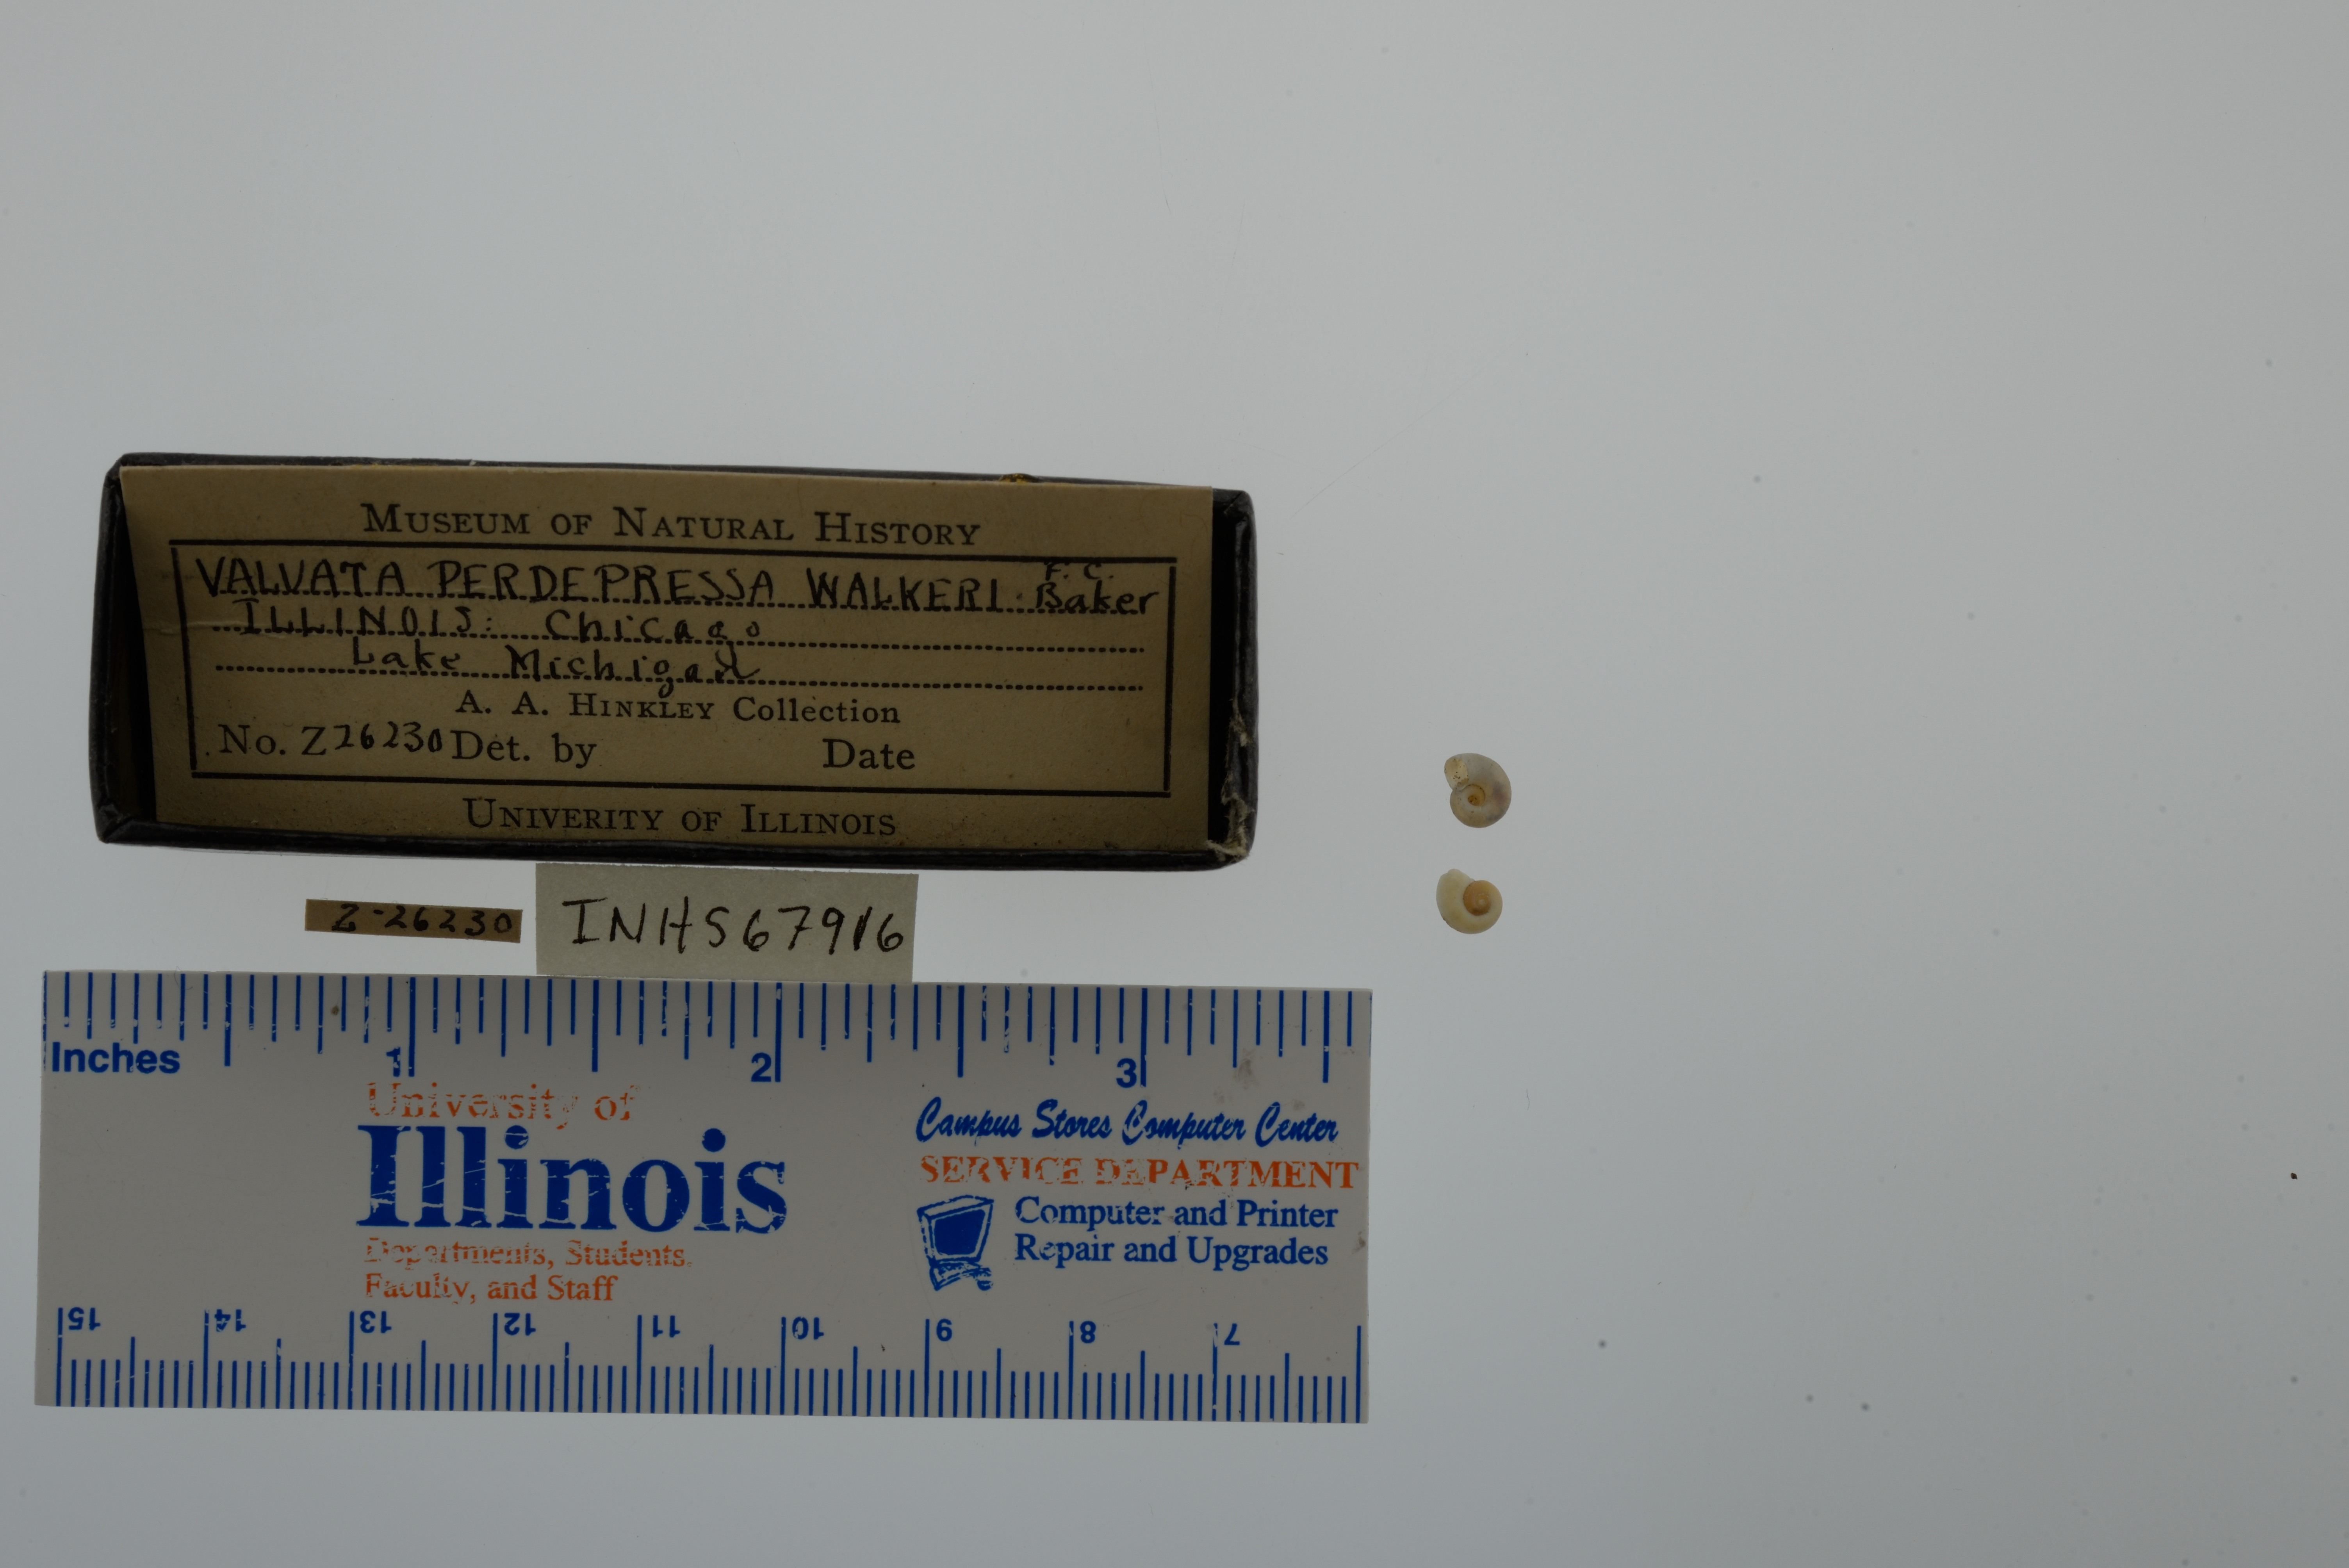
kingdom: Animalia
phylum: Mollusca
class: Gastropoda
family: Valvatidae
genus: Valvata
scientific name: Valvata perdepressa
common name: Purplecap valvata
